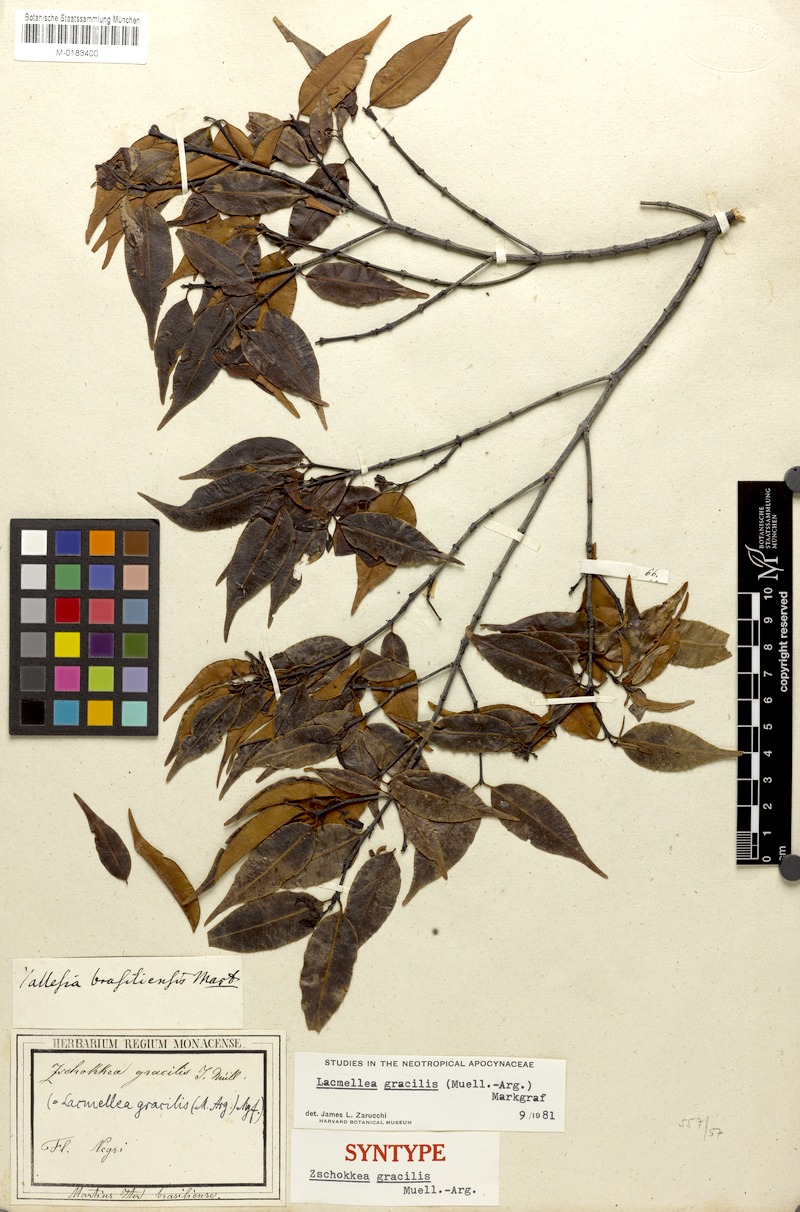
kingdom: Plantae
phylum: Tracheophyta
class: Magnoliopsida
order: Gentianales
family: Apocynaceae
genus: Lacmellea
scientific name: Lacmellea gracilis
